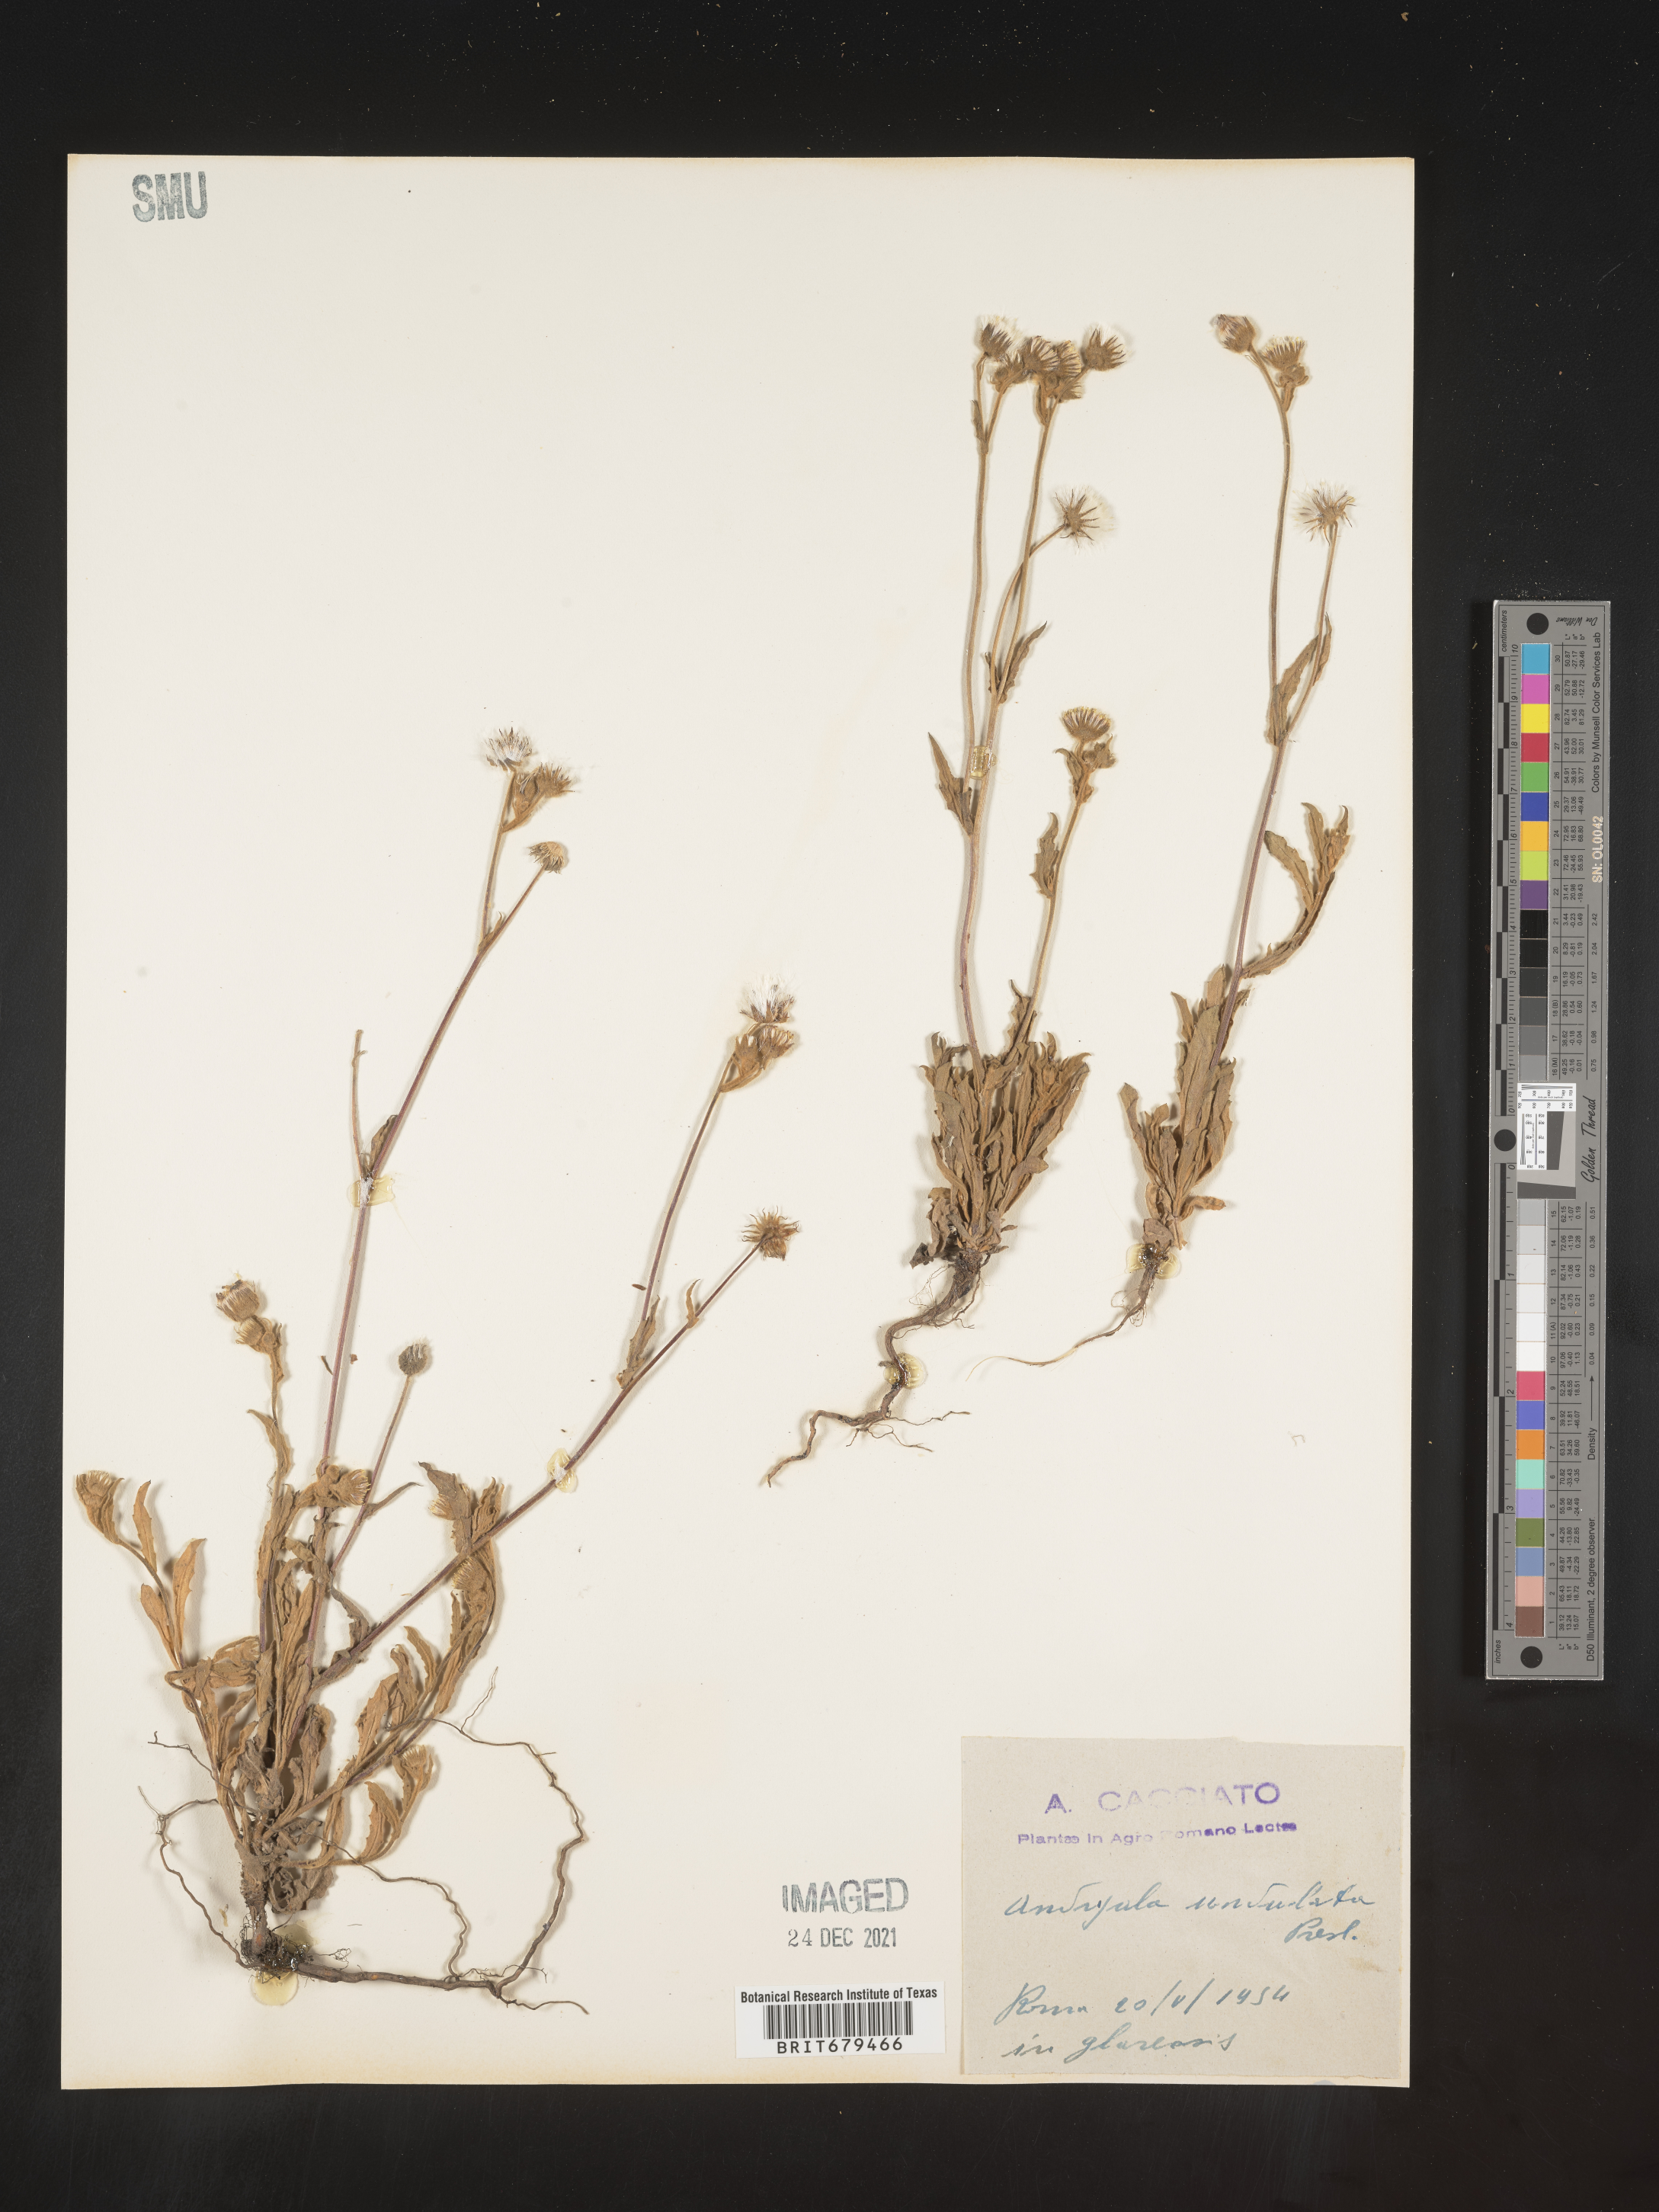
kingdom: Plantae
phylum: Tracheophyta
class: Magnoliopsida
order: Asterales
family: Asteraceae
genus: Andryala
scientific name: Andryala
